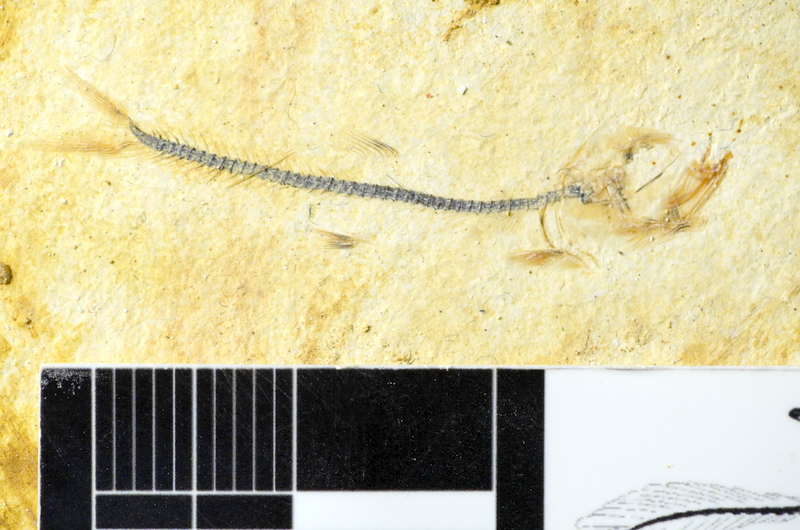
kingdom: Animalia
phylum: Chordata
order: Salmoniformes
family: Orthogonikleithridae
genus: Orthogonikleithrus
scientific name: Orthogonikleithrus hoelli
